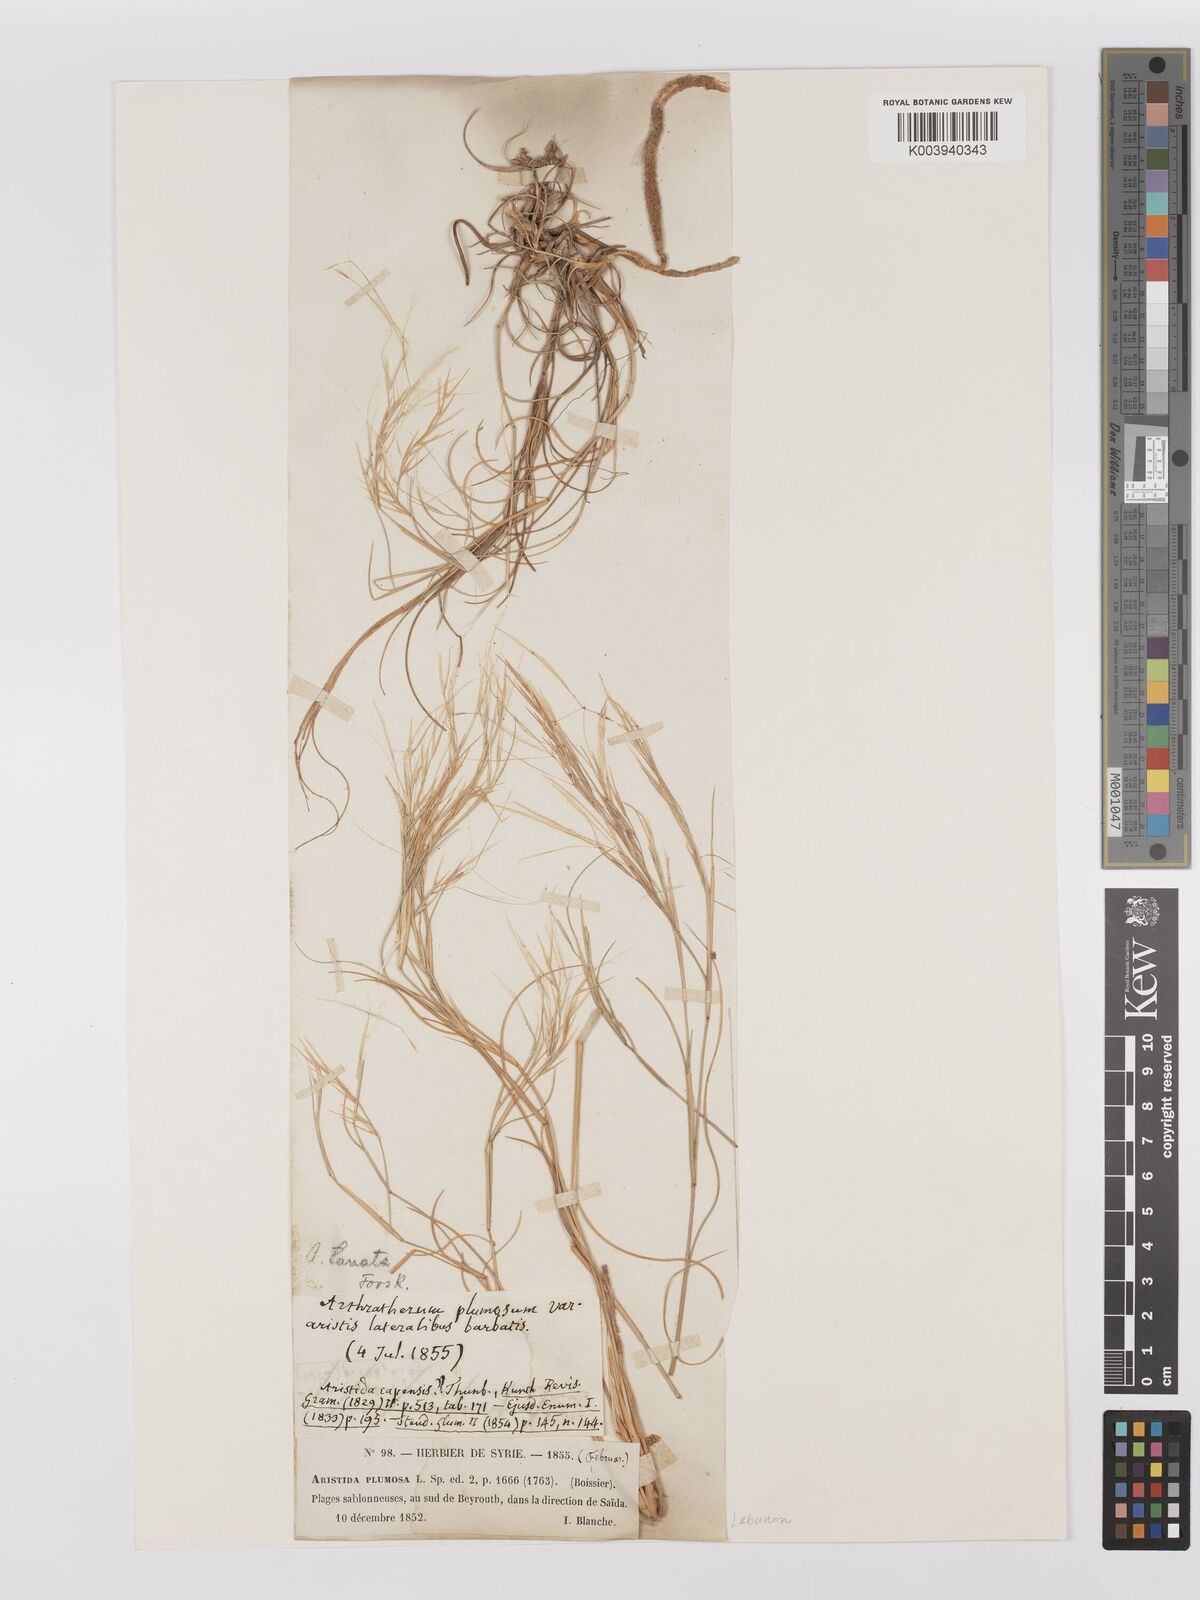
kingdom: Plantae
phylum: Tracheophyta
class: Liliopsida
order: Poales
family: Poaceae
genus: Stipagrostis
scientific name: Stipagrostis lanata
